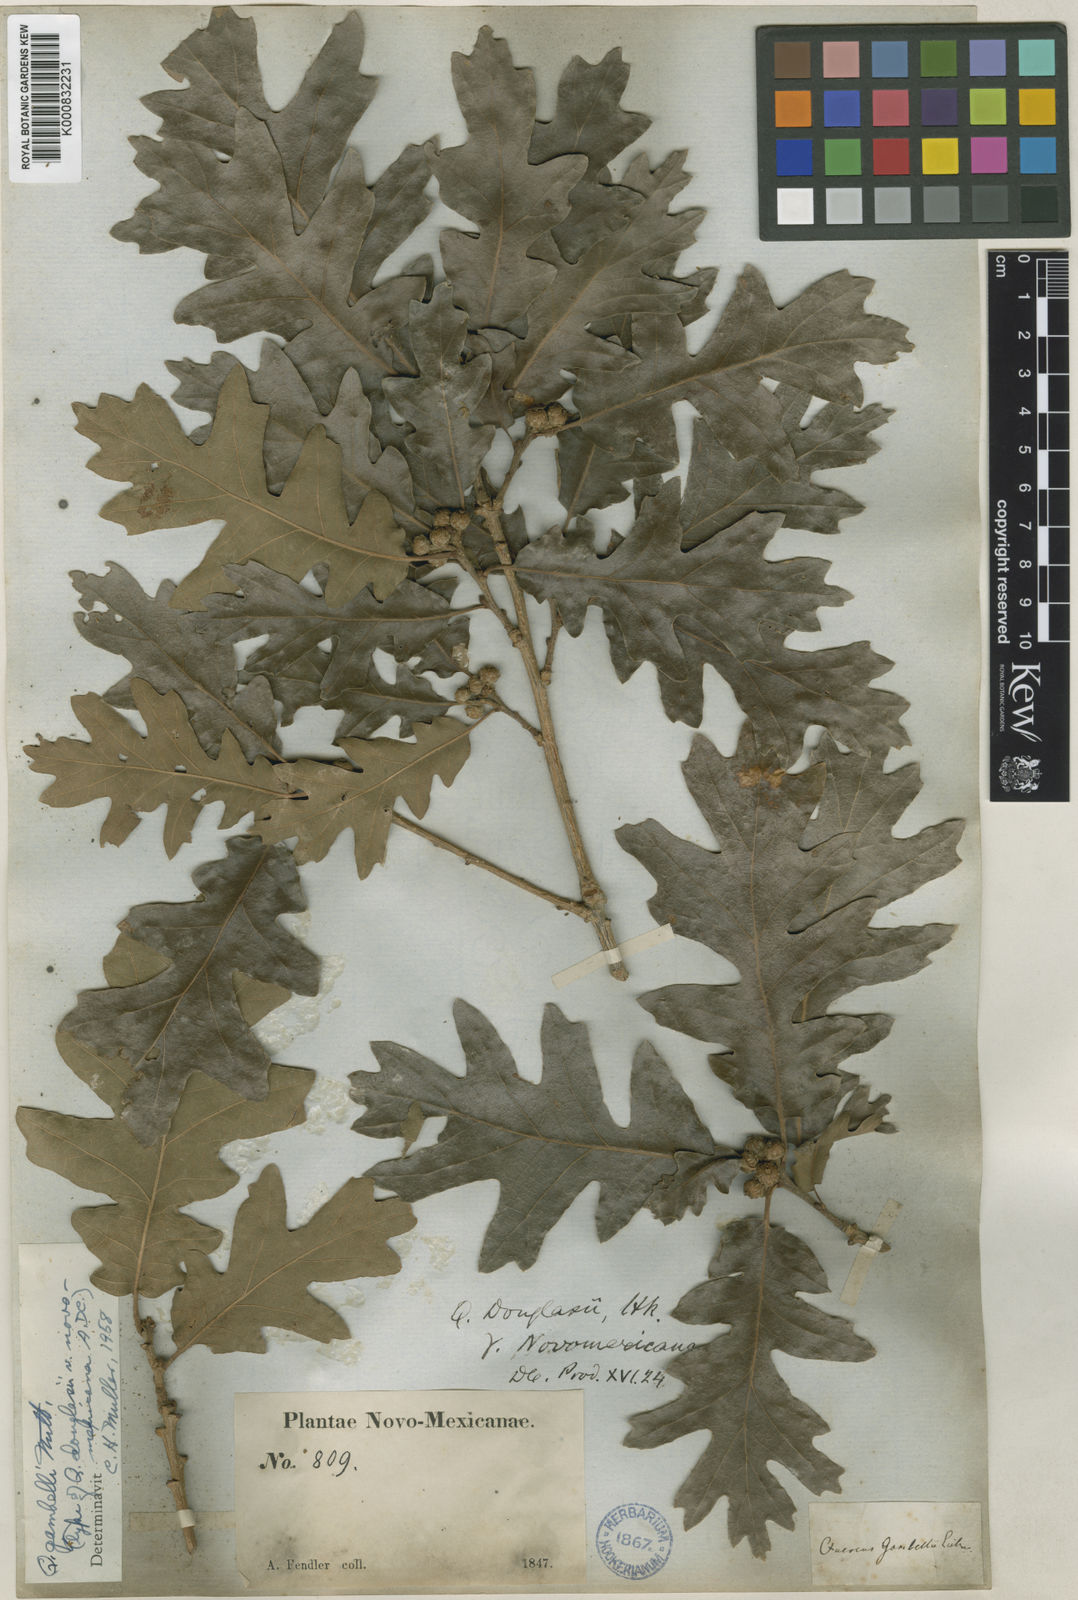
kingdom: Plantae
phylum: Tracheophyta
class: Magnoliopsida
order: Fagales
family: Fagaceae
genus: Quercus
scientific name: Quercus gambelii
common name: Gambel oak
